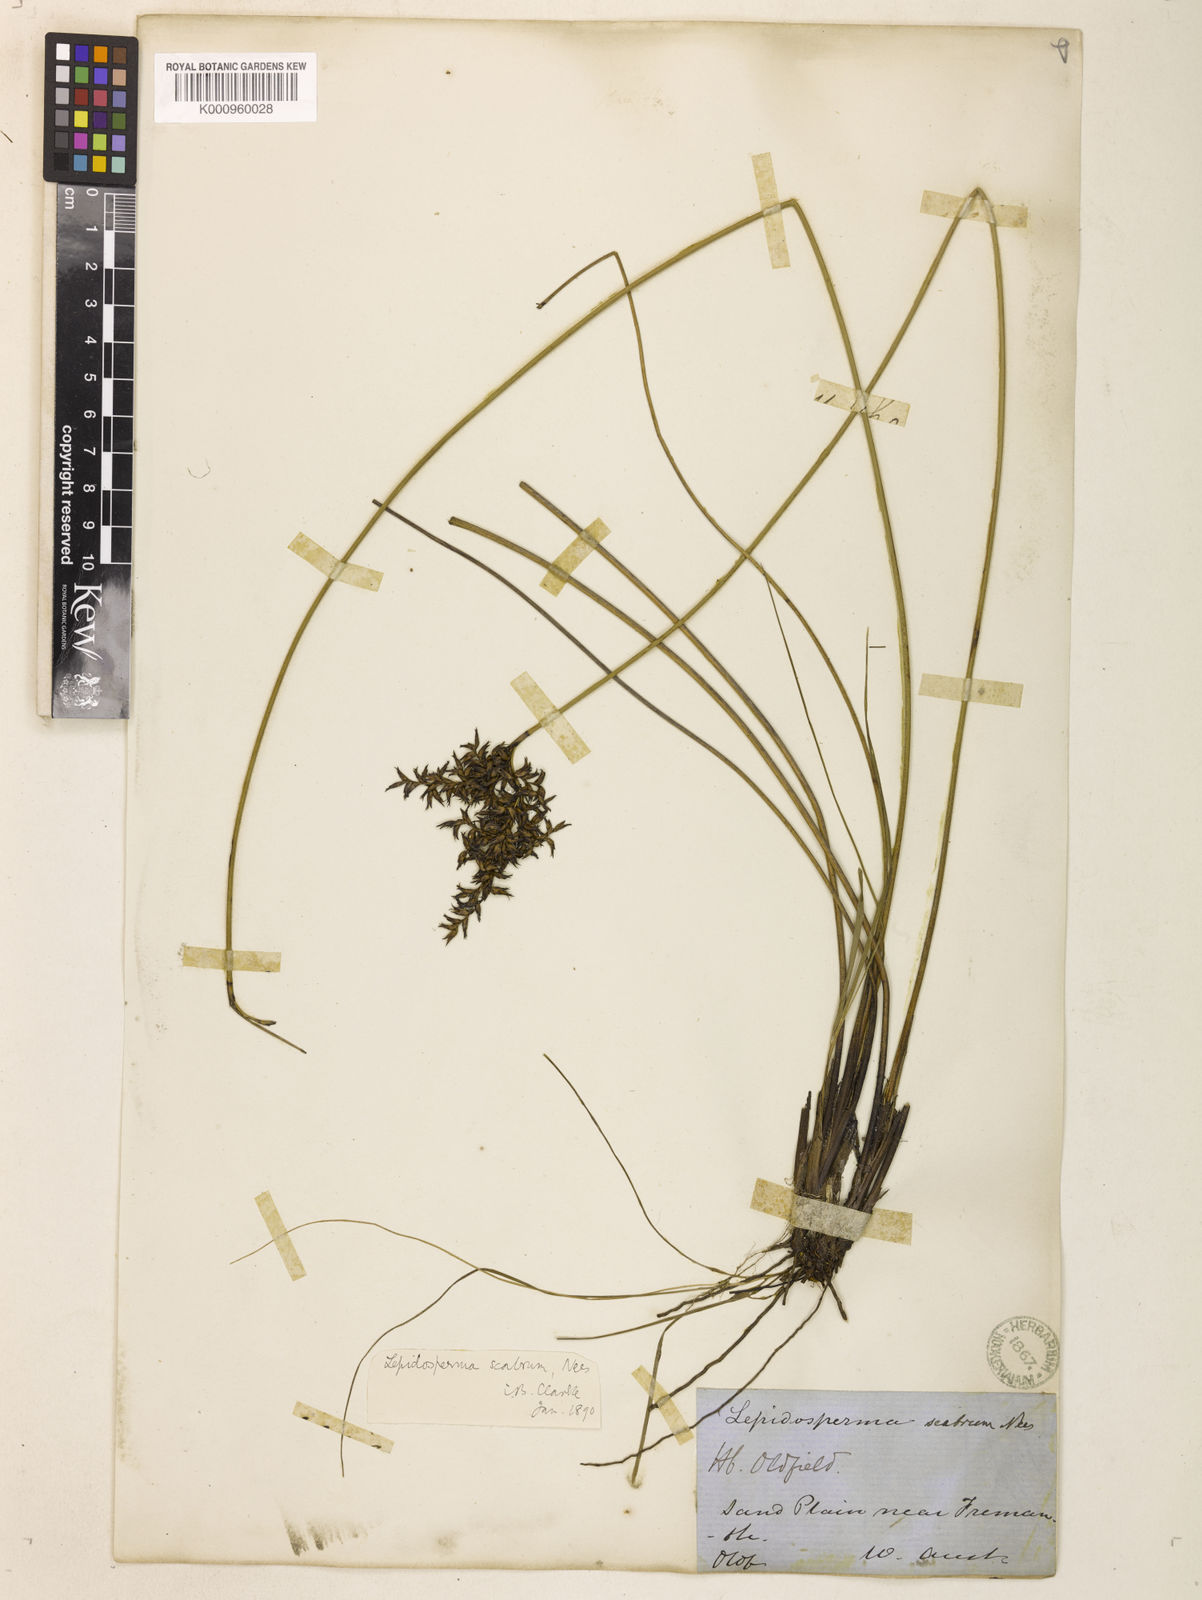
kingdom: Plantae
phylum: Tracheophyta
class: Liliopsida
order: Poales
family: Cyperaceae
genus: Lepidosperma
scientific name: Lepidosperma scabrum
